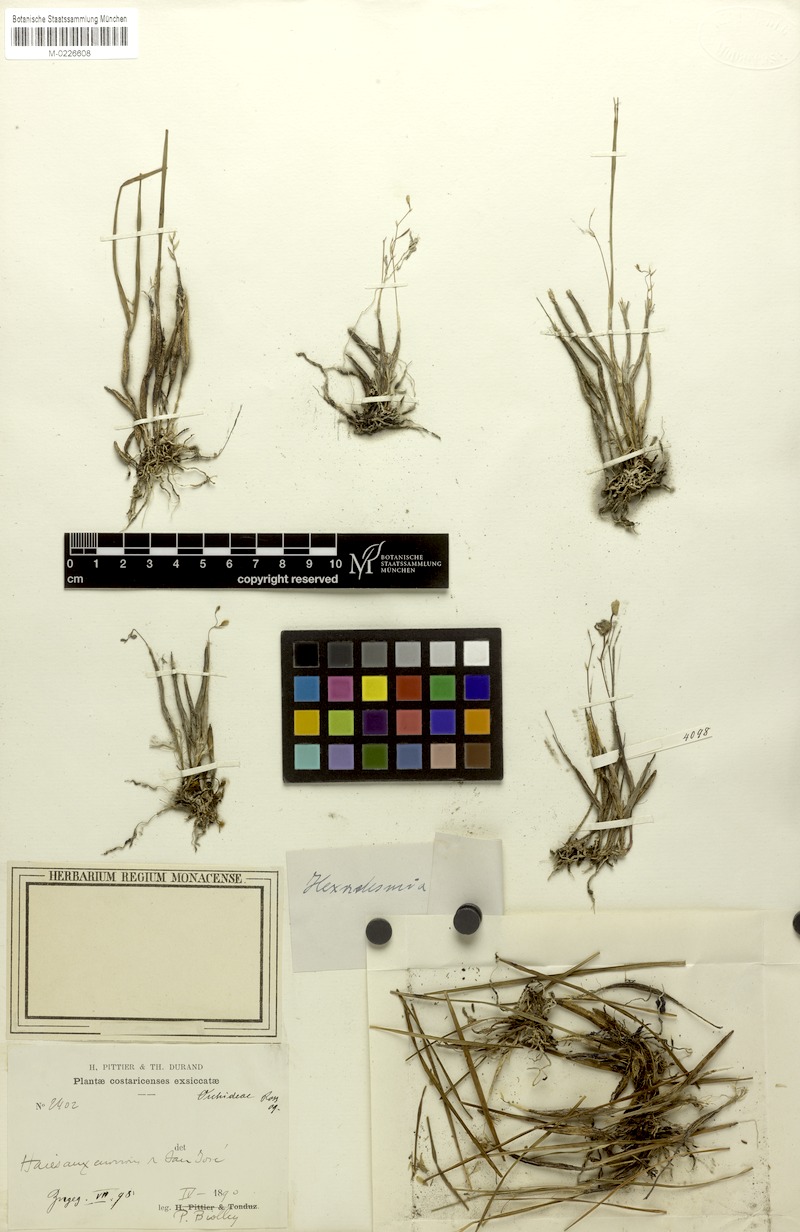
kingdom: Plantae
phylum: Tracheophyta
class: Liliopsida
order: Asparagales
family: Orchidaceae
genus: Scaphyglottis
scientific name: Scaphyglottis crurigera
